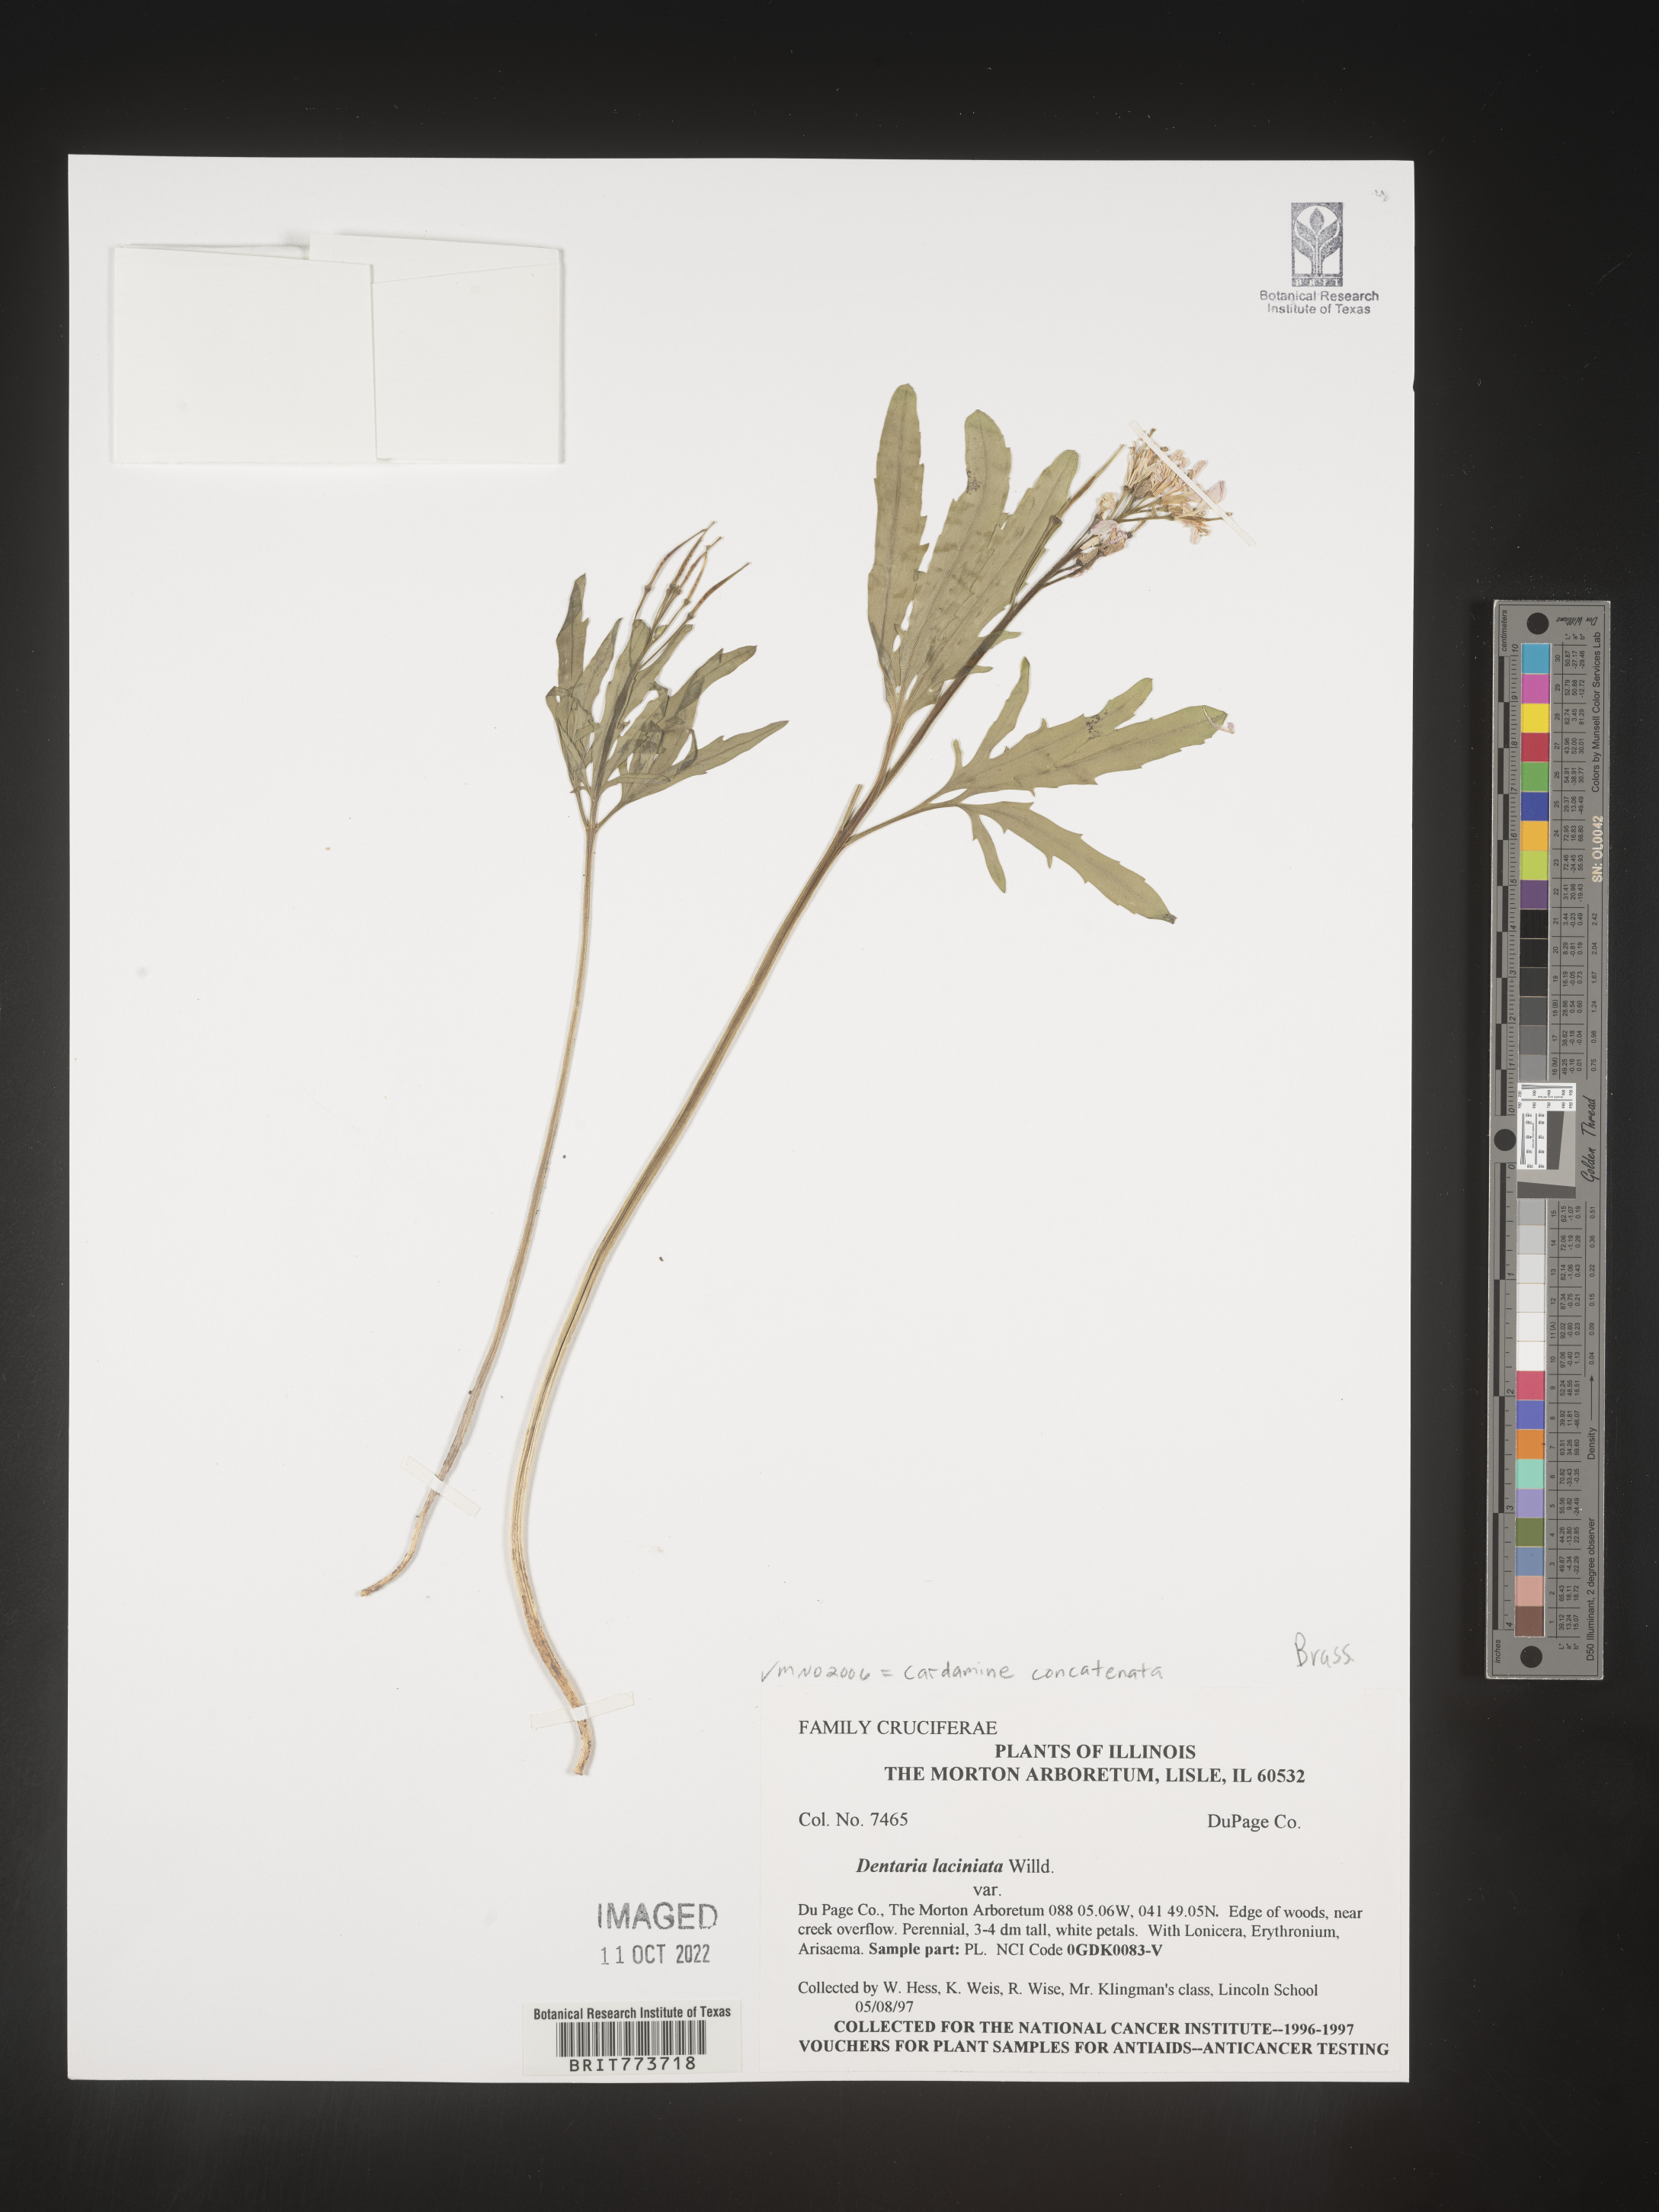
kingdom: Plantae
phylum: Tracheophyta
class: Magnoliopsida
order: Brassicales
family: Brassicaceae
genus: Rorippa
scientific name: Rorippa laciniata
